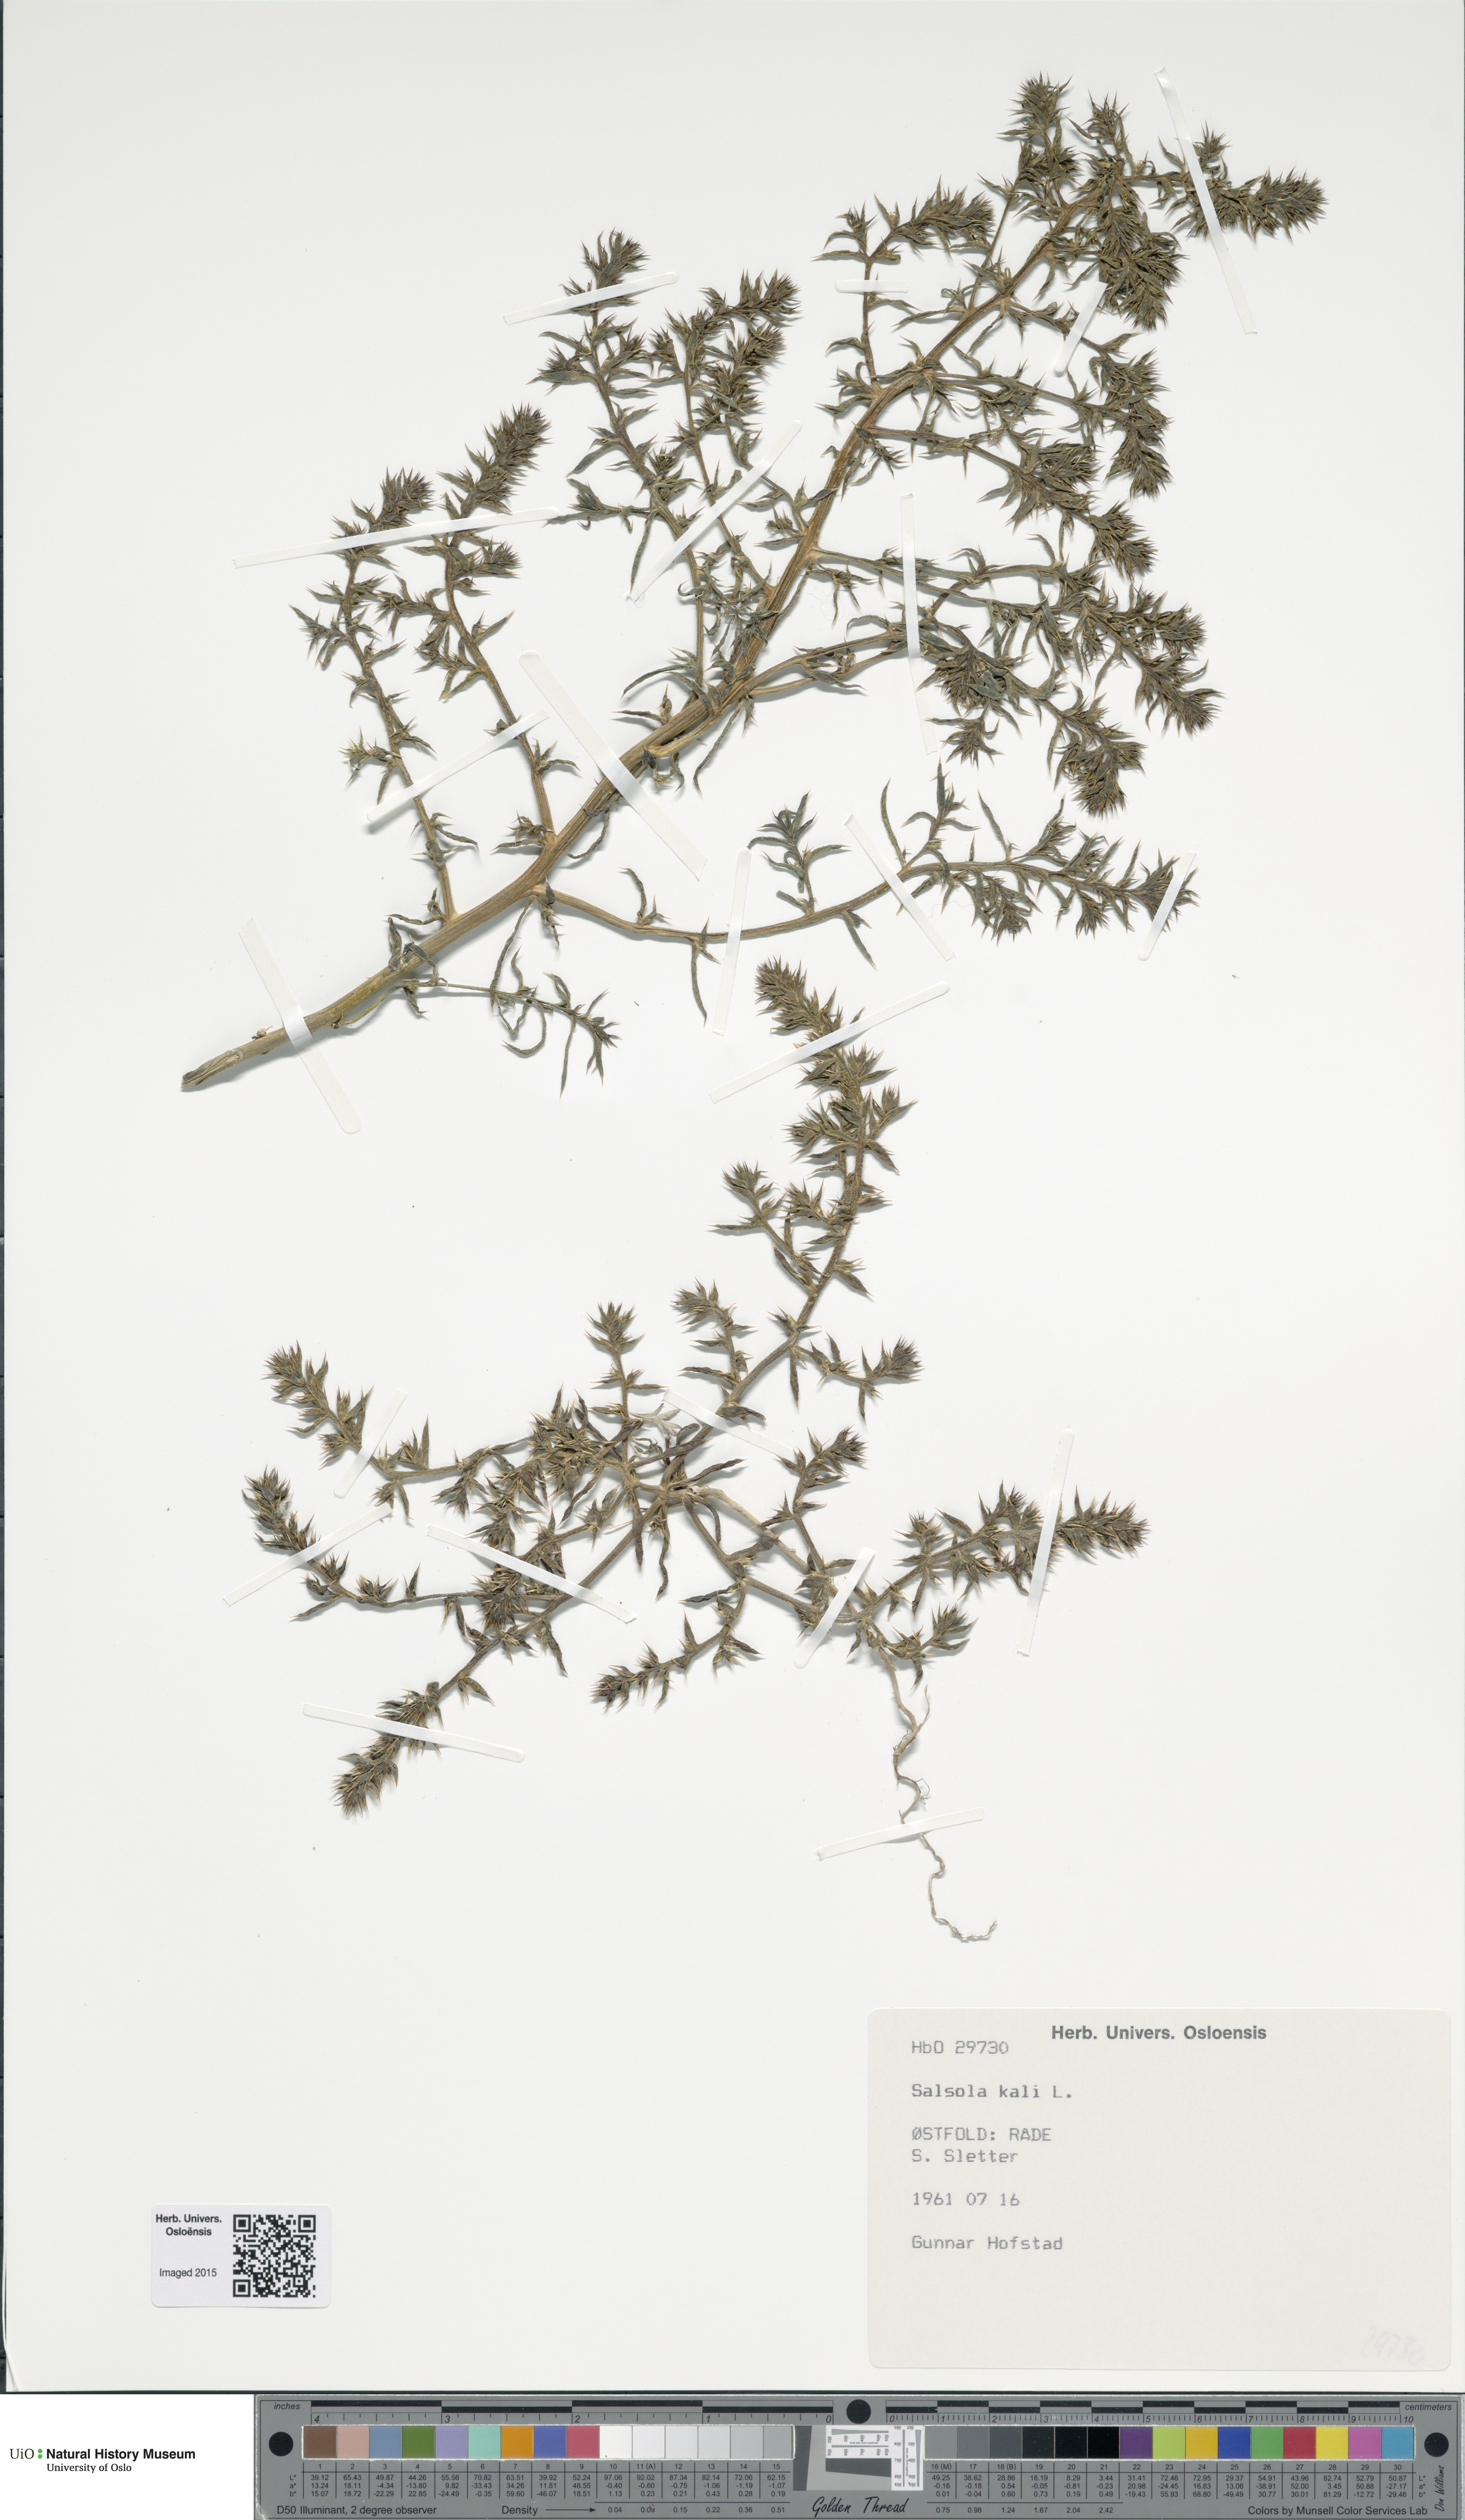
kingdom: Plantae
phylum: Tracheophyta
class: Magnoliopsida
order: Caryophyllales
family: Amaranthaceae
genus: Salsola
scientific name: Salsola kali
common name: Saltwort
